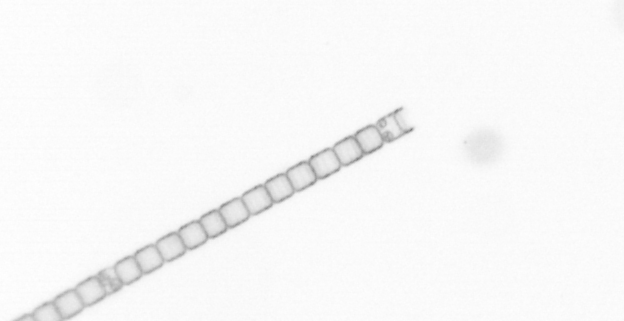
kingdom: Chromista
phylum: Ochrophyta
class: Bacillariophyceae
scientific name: Bacillariophyceae
